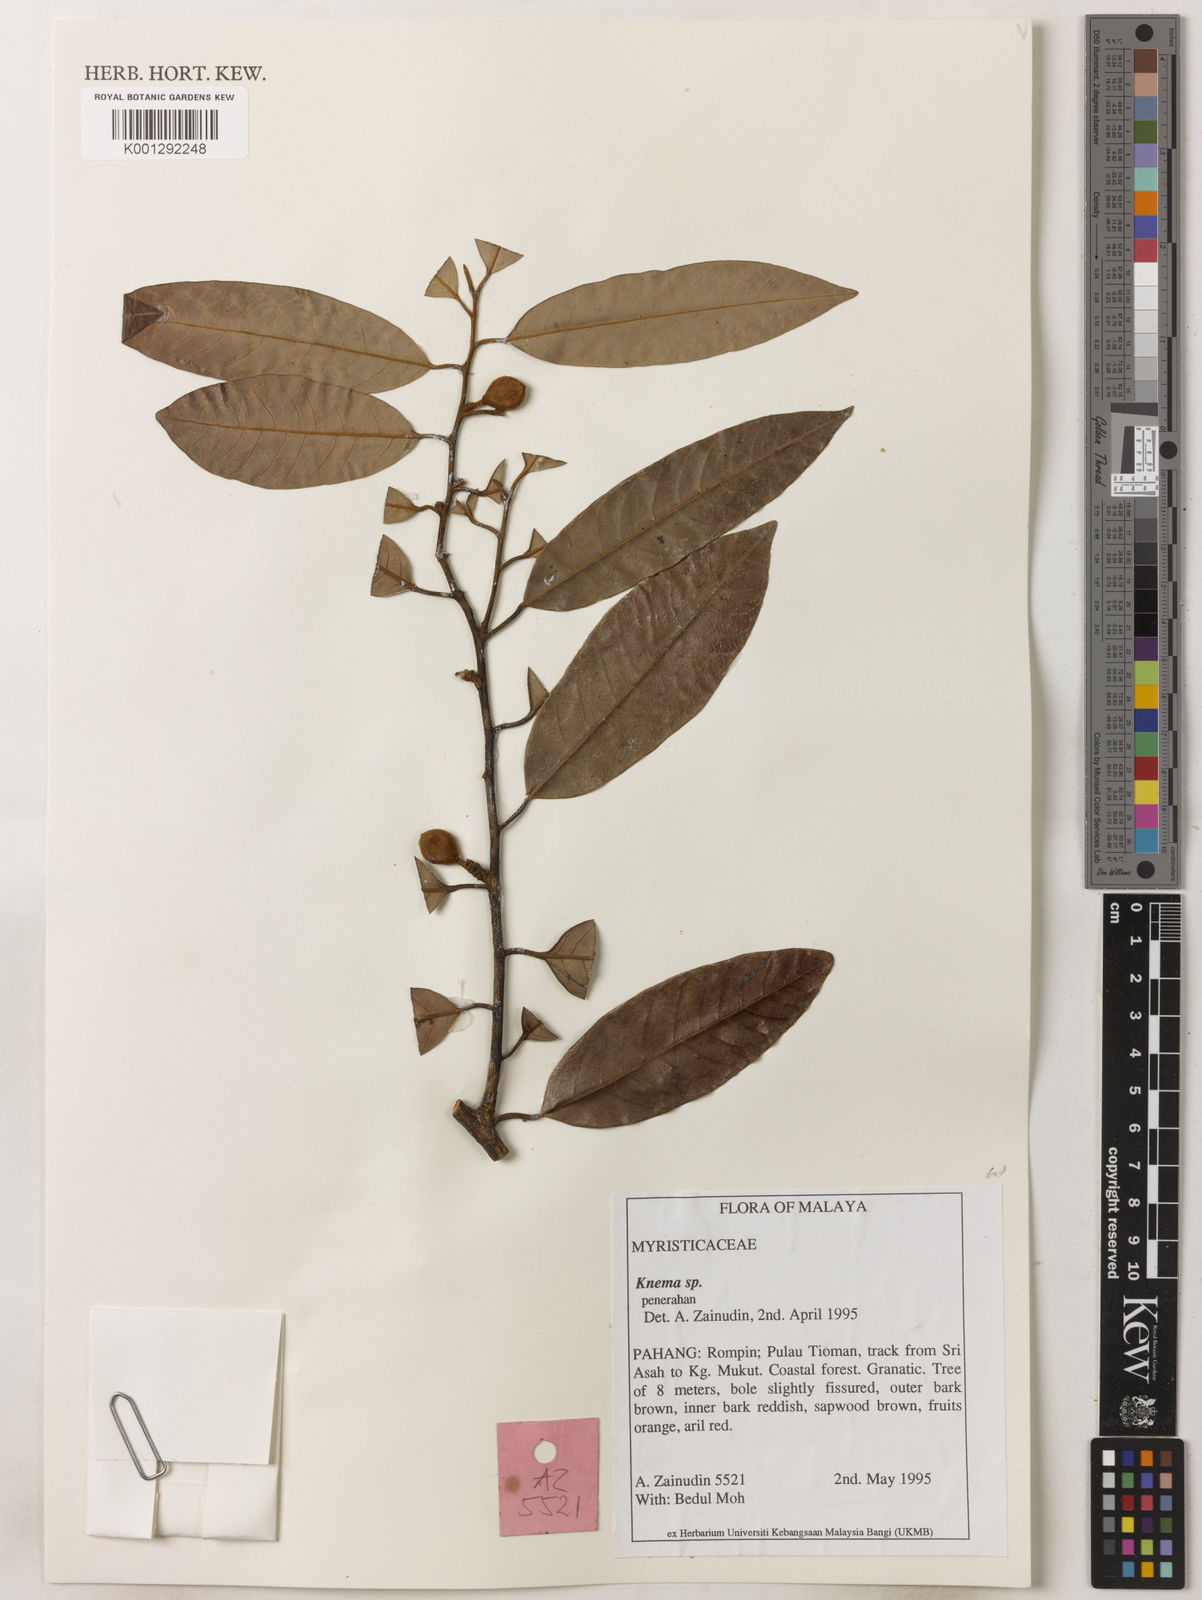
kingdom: Plantae
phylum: Tracheophyta
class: Magnoliopsida
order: Magnoliales
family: Myristicaceae
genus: Knema
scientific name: Knema
